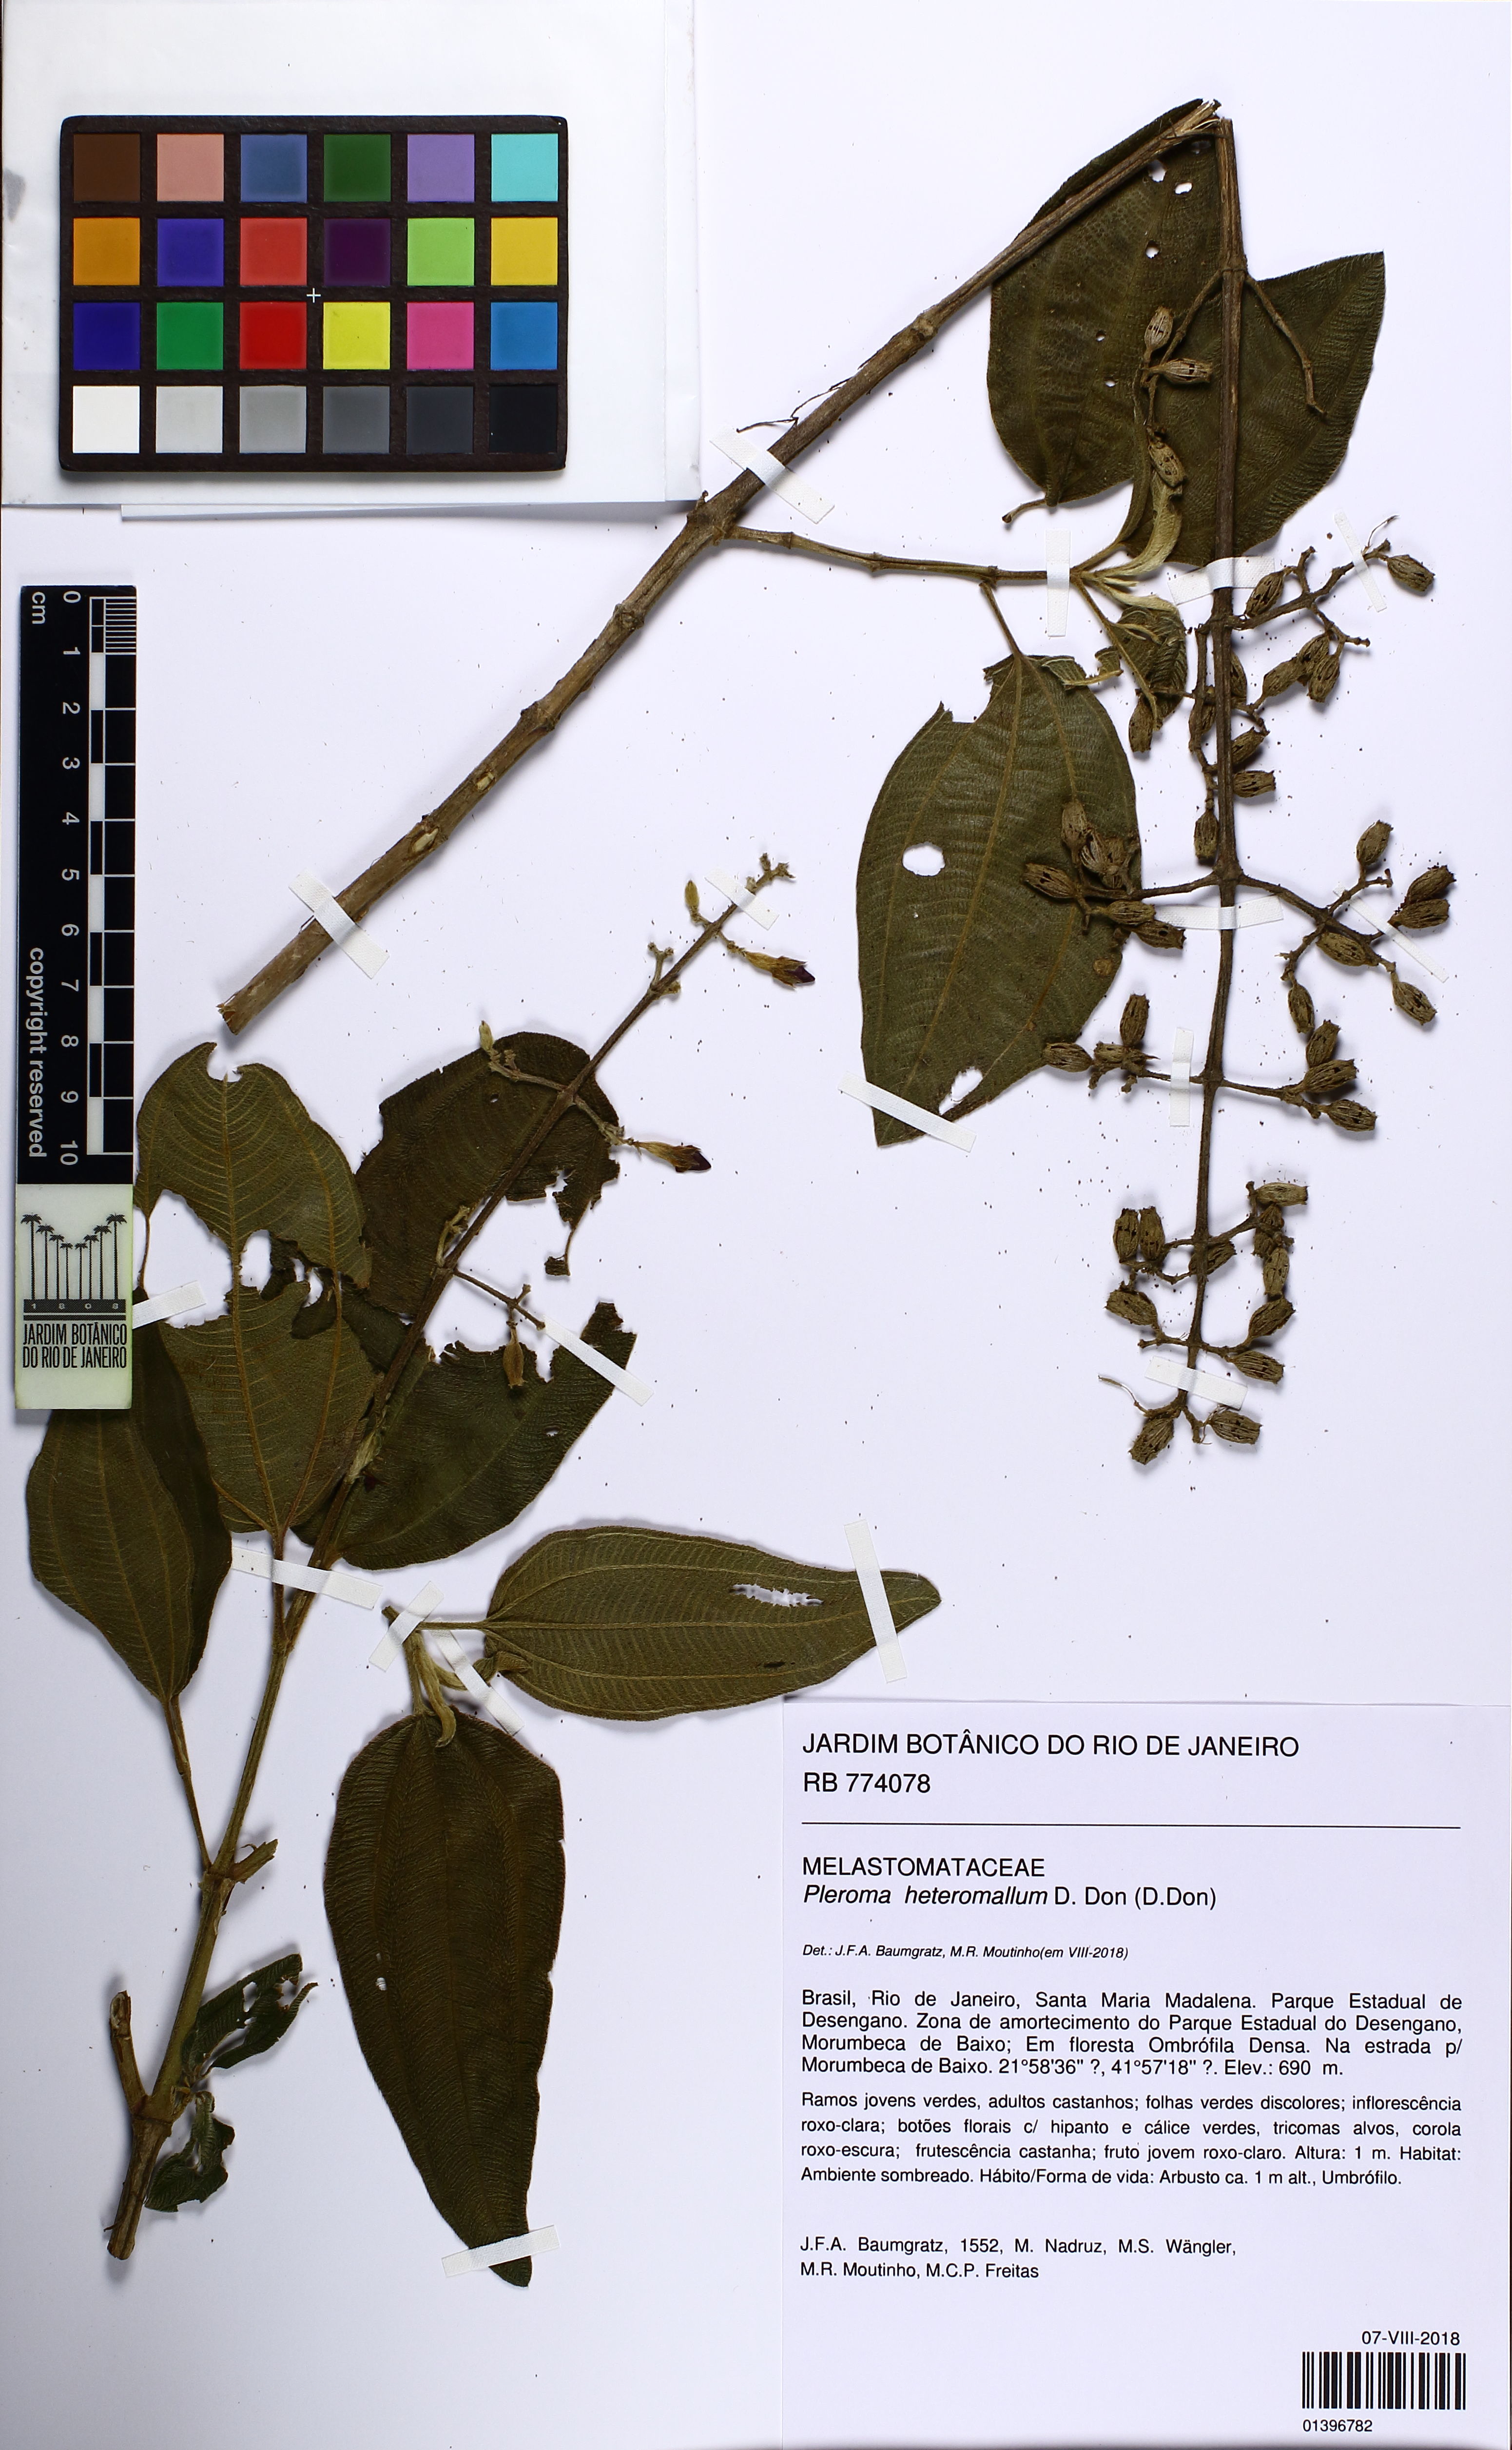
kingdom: Plantae
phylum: Tracheophyta
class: Magnoliopsida
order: Myrtales
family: Melastomataceae
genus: Pleroma
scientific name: Pleroma heteromallum
